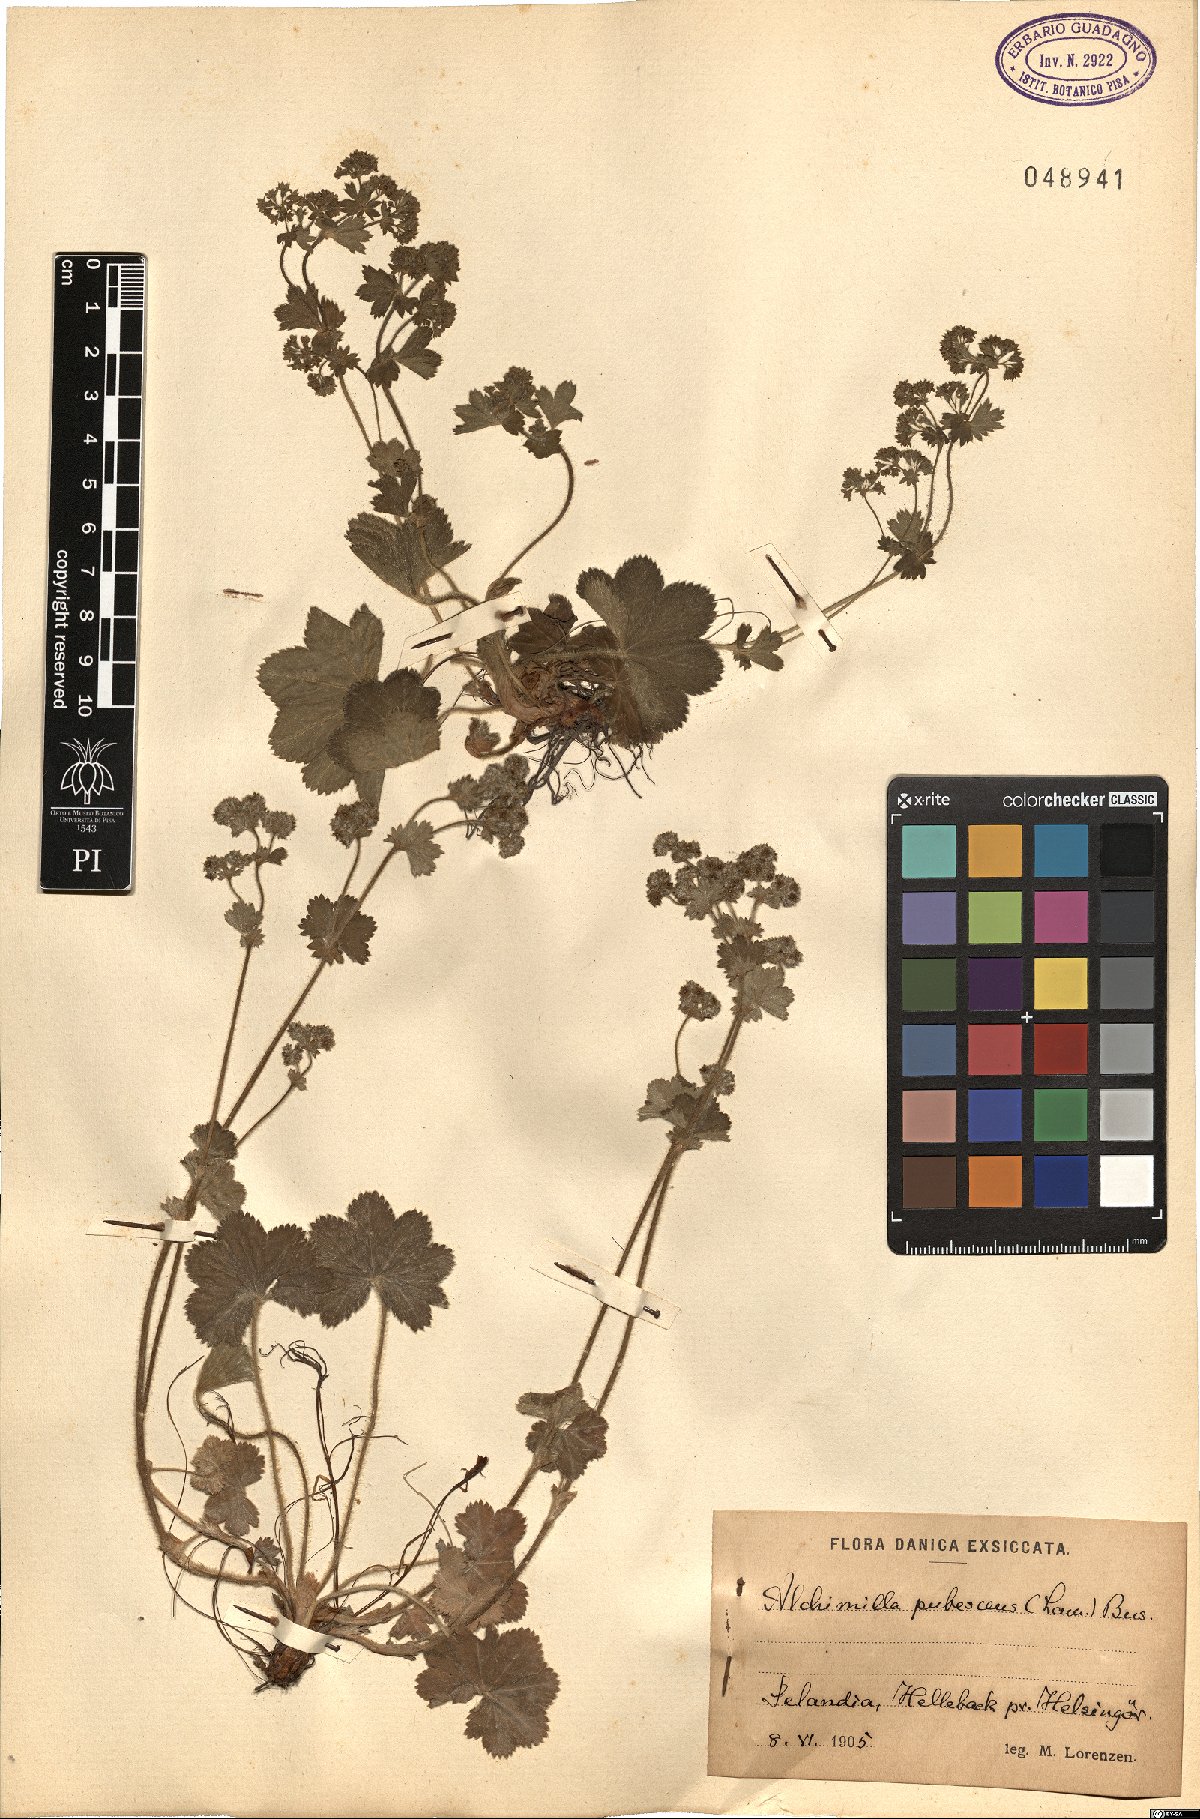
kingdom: Plantae
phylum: Tracheophyta
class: Magnoliopsida
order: Rosales
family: Rosaceae
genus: Alchemilla
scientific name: Alchemilla hybrida
